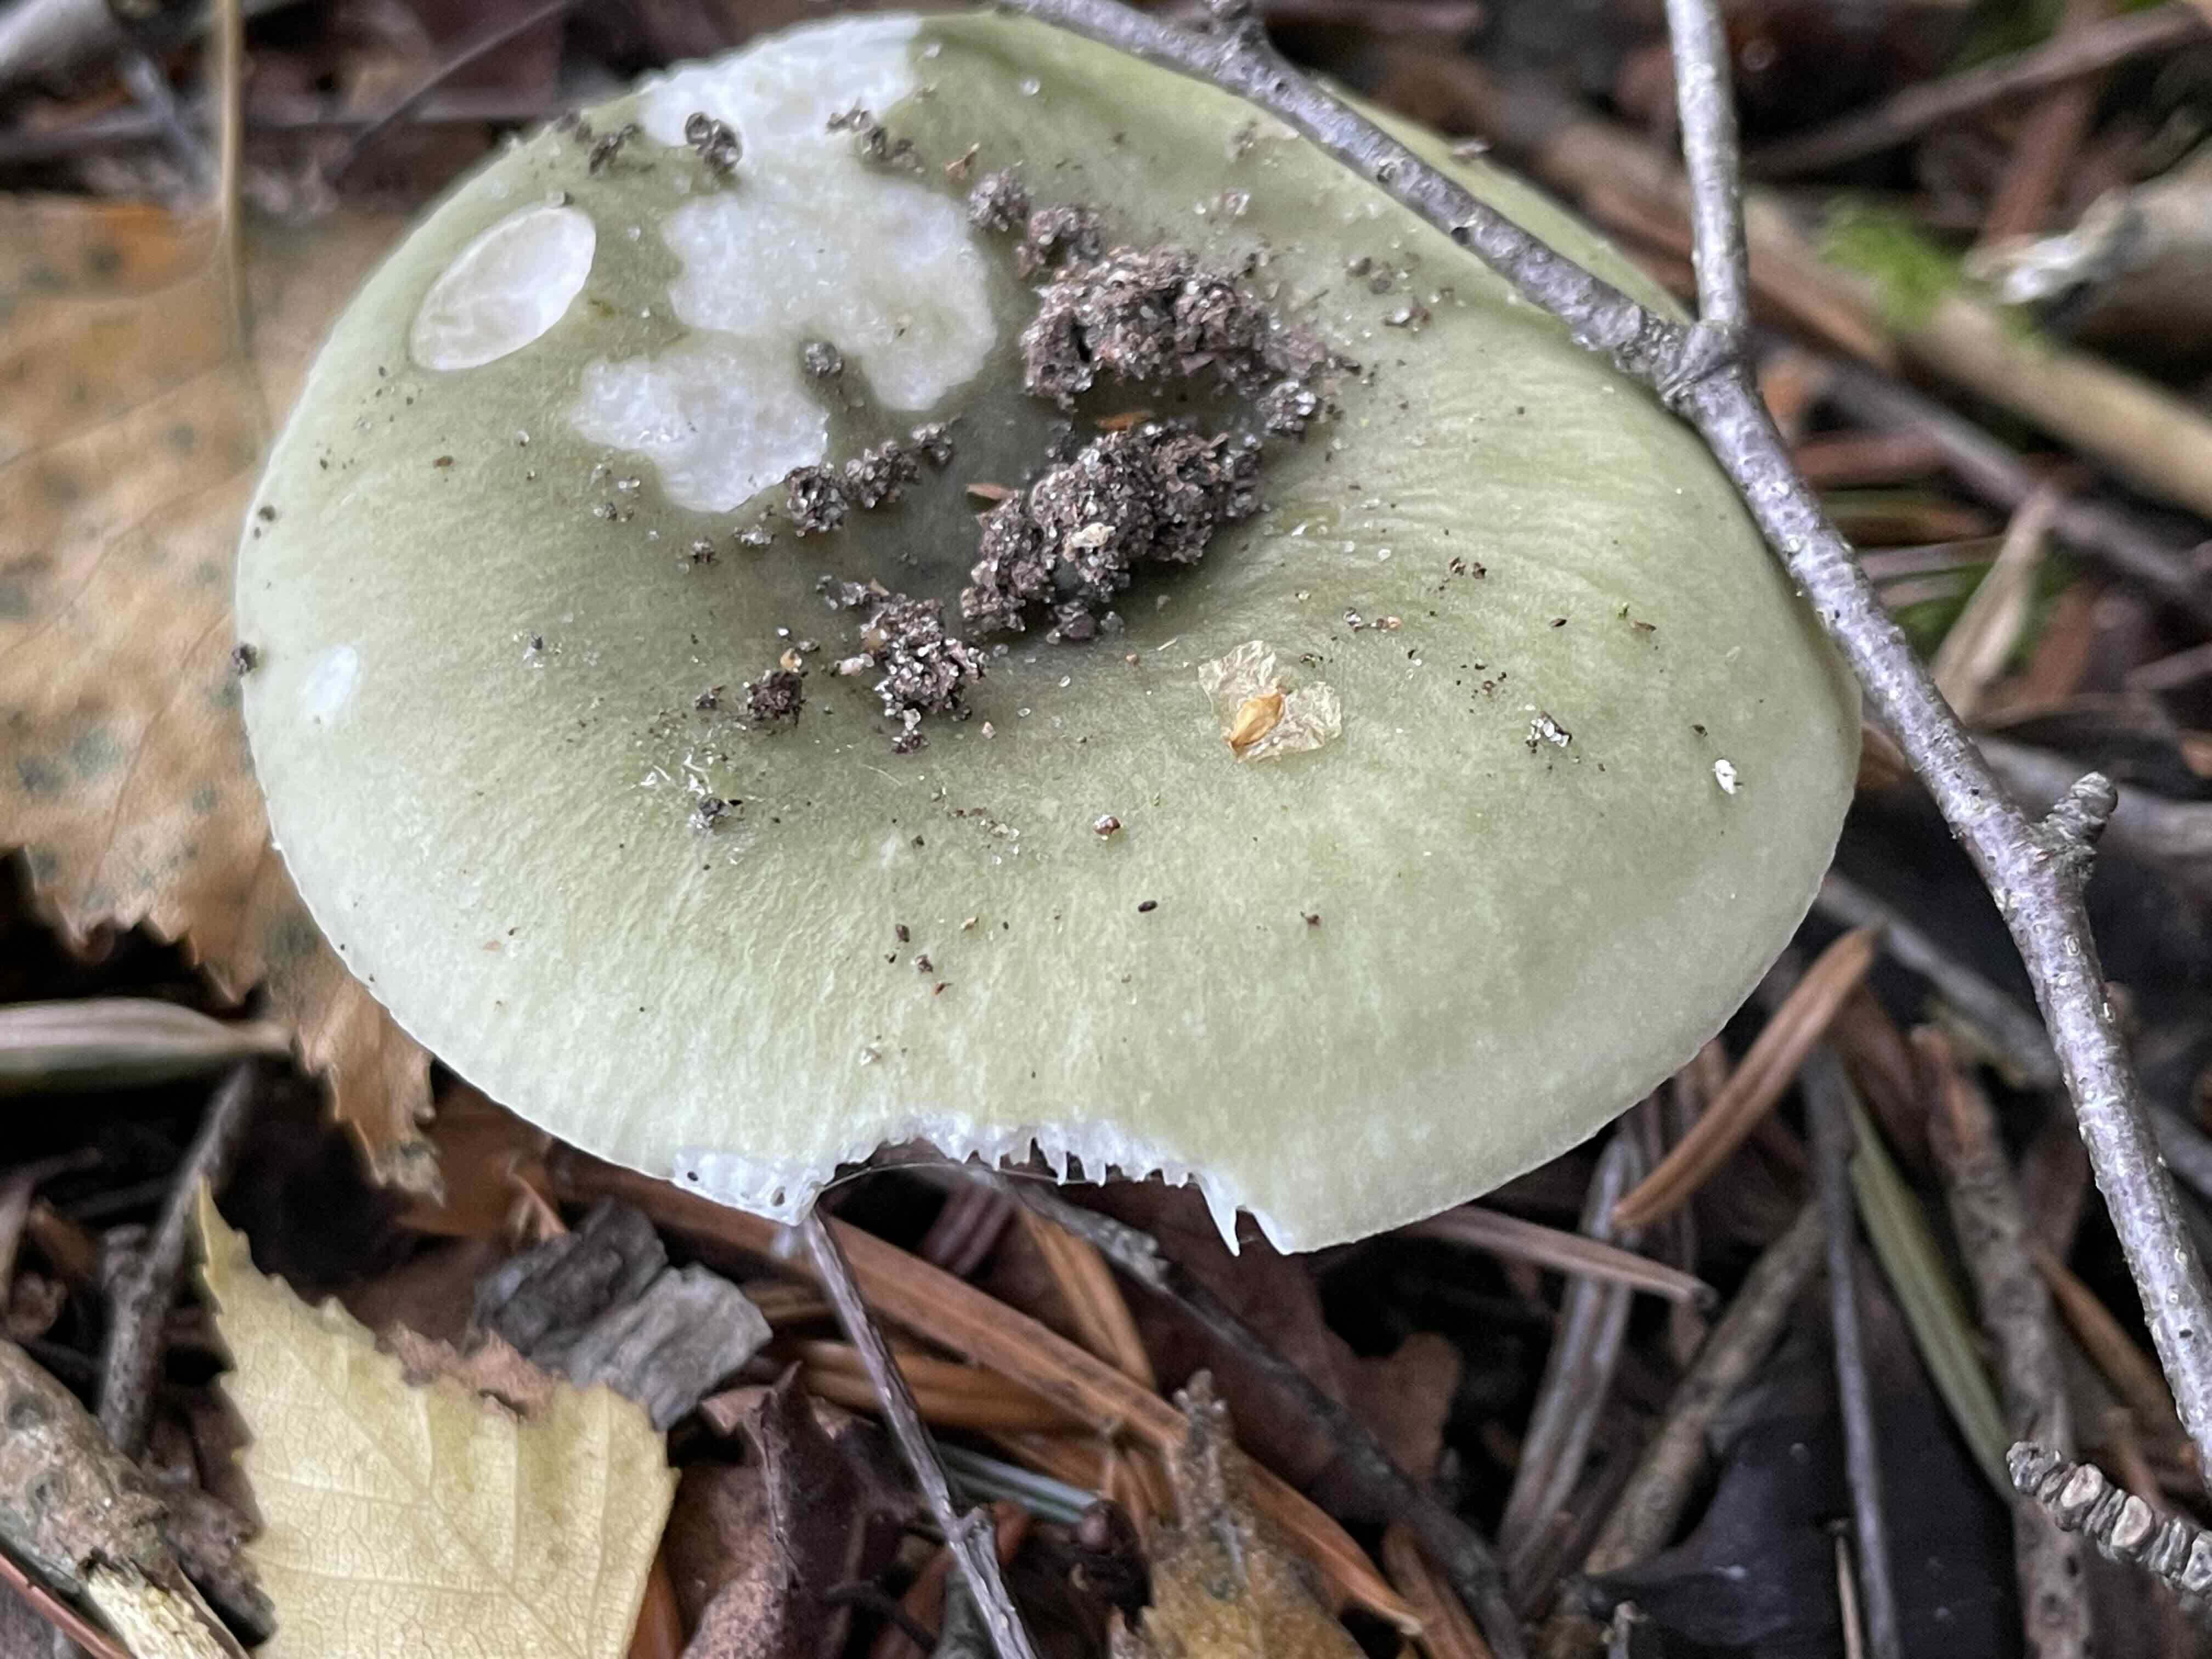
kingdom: Fungi
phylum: Basidiomycota
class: Agaricomycetes
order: Russulales
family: Russulaceae
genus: Russula
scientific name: Russula aeruginea
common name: græsgrøn skørhat
